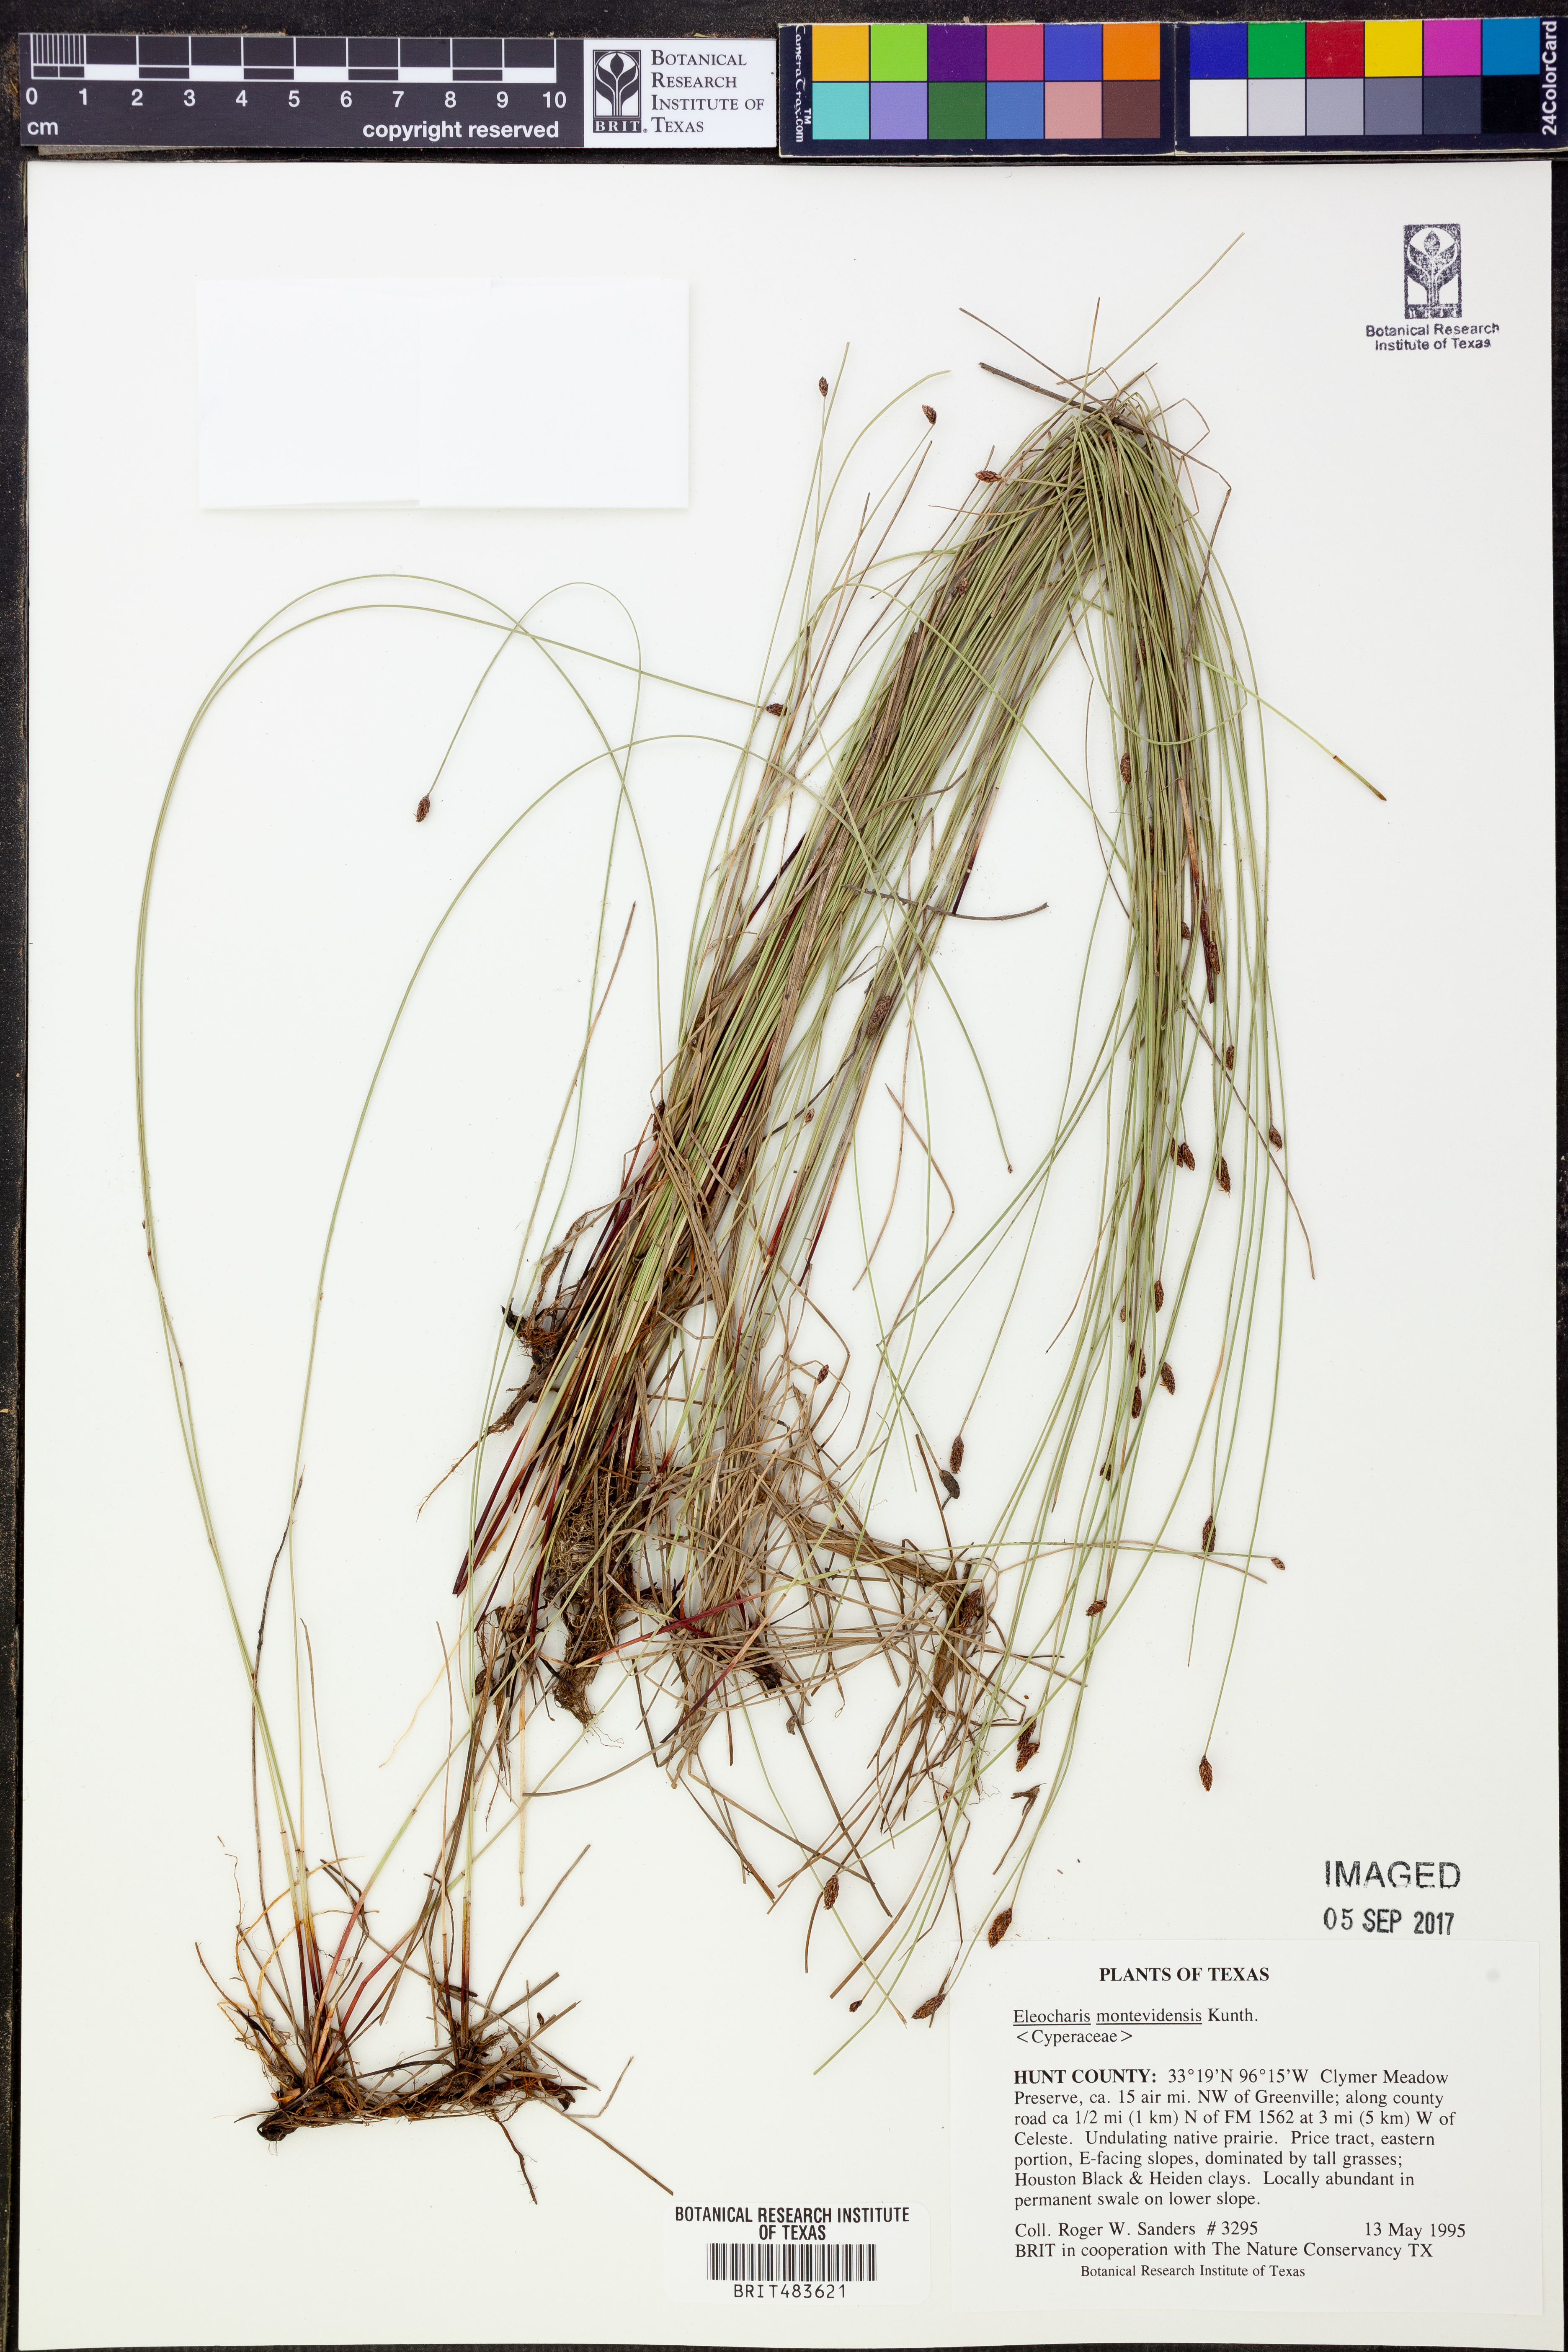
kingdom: Plantae
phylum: Tracheophyta
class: Liliopsida
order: Poales
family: Cyperaceae
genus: Eleocharis
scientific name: Eleocharis montevidensis
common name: Sand spike-rush
